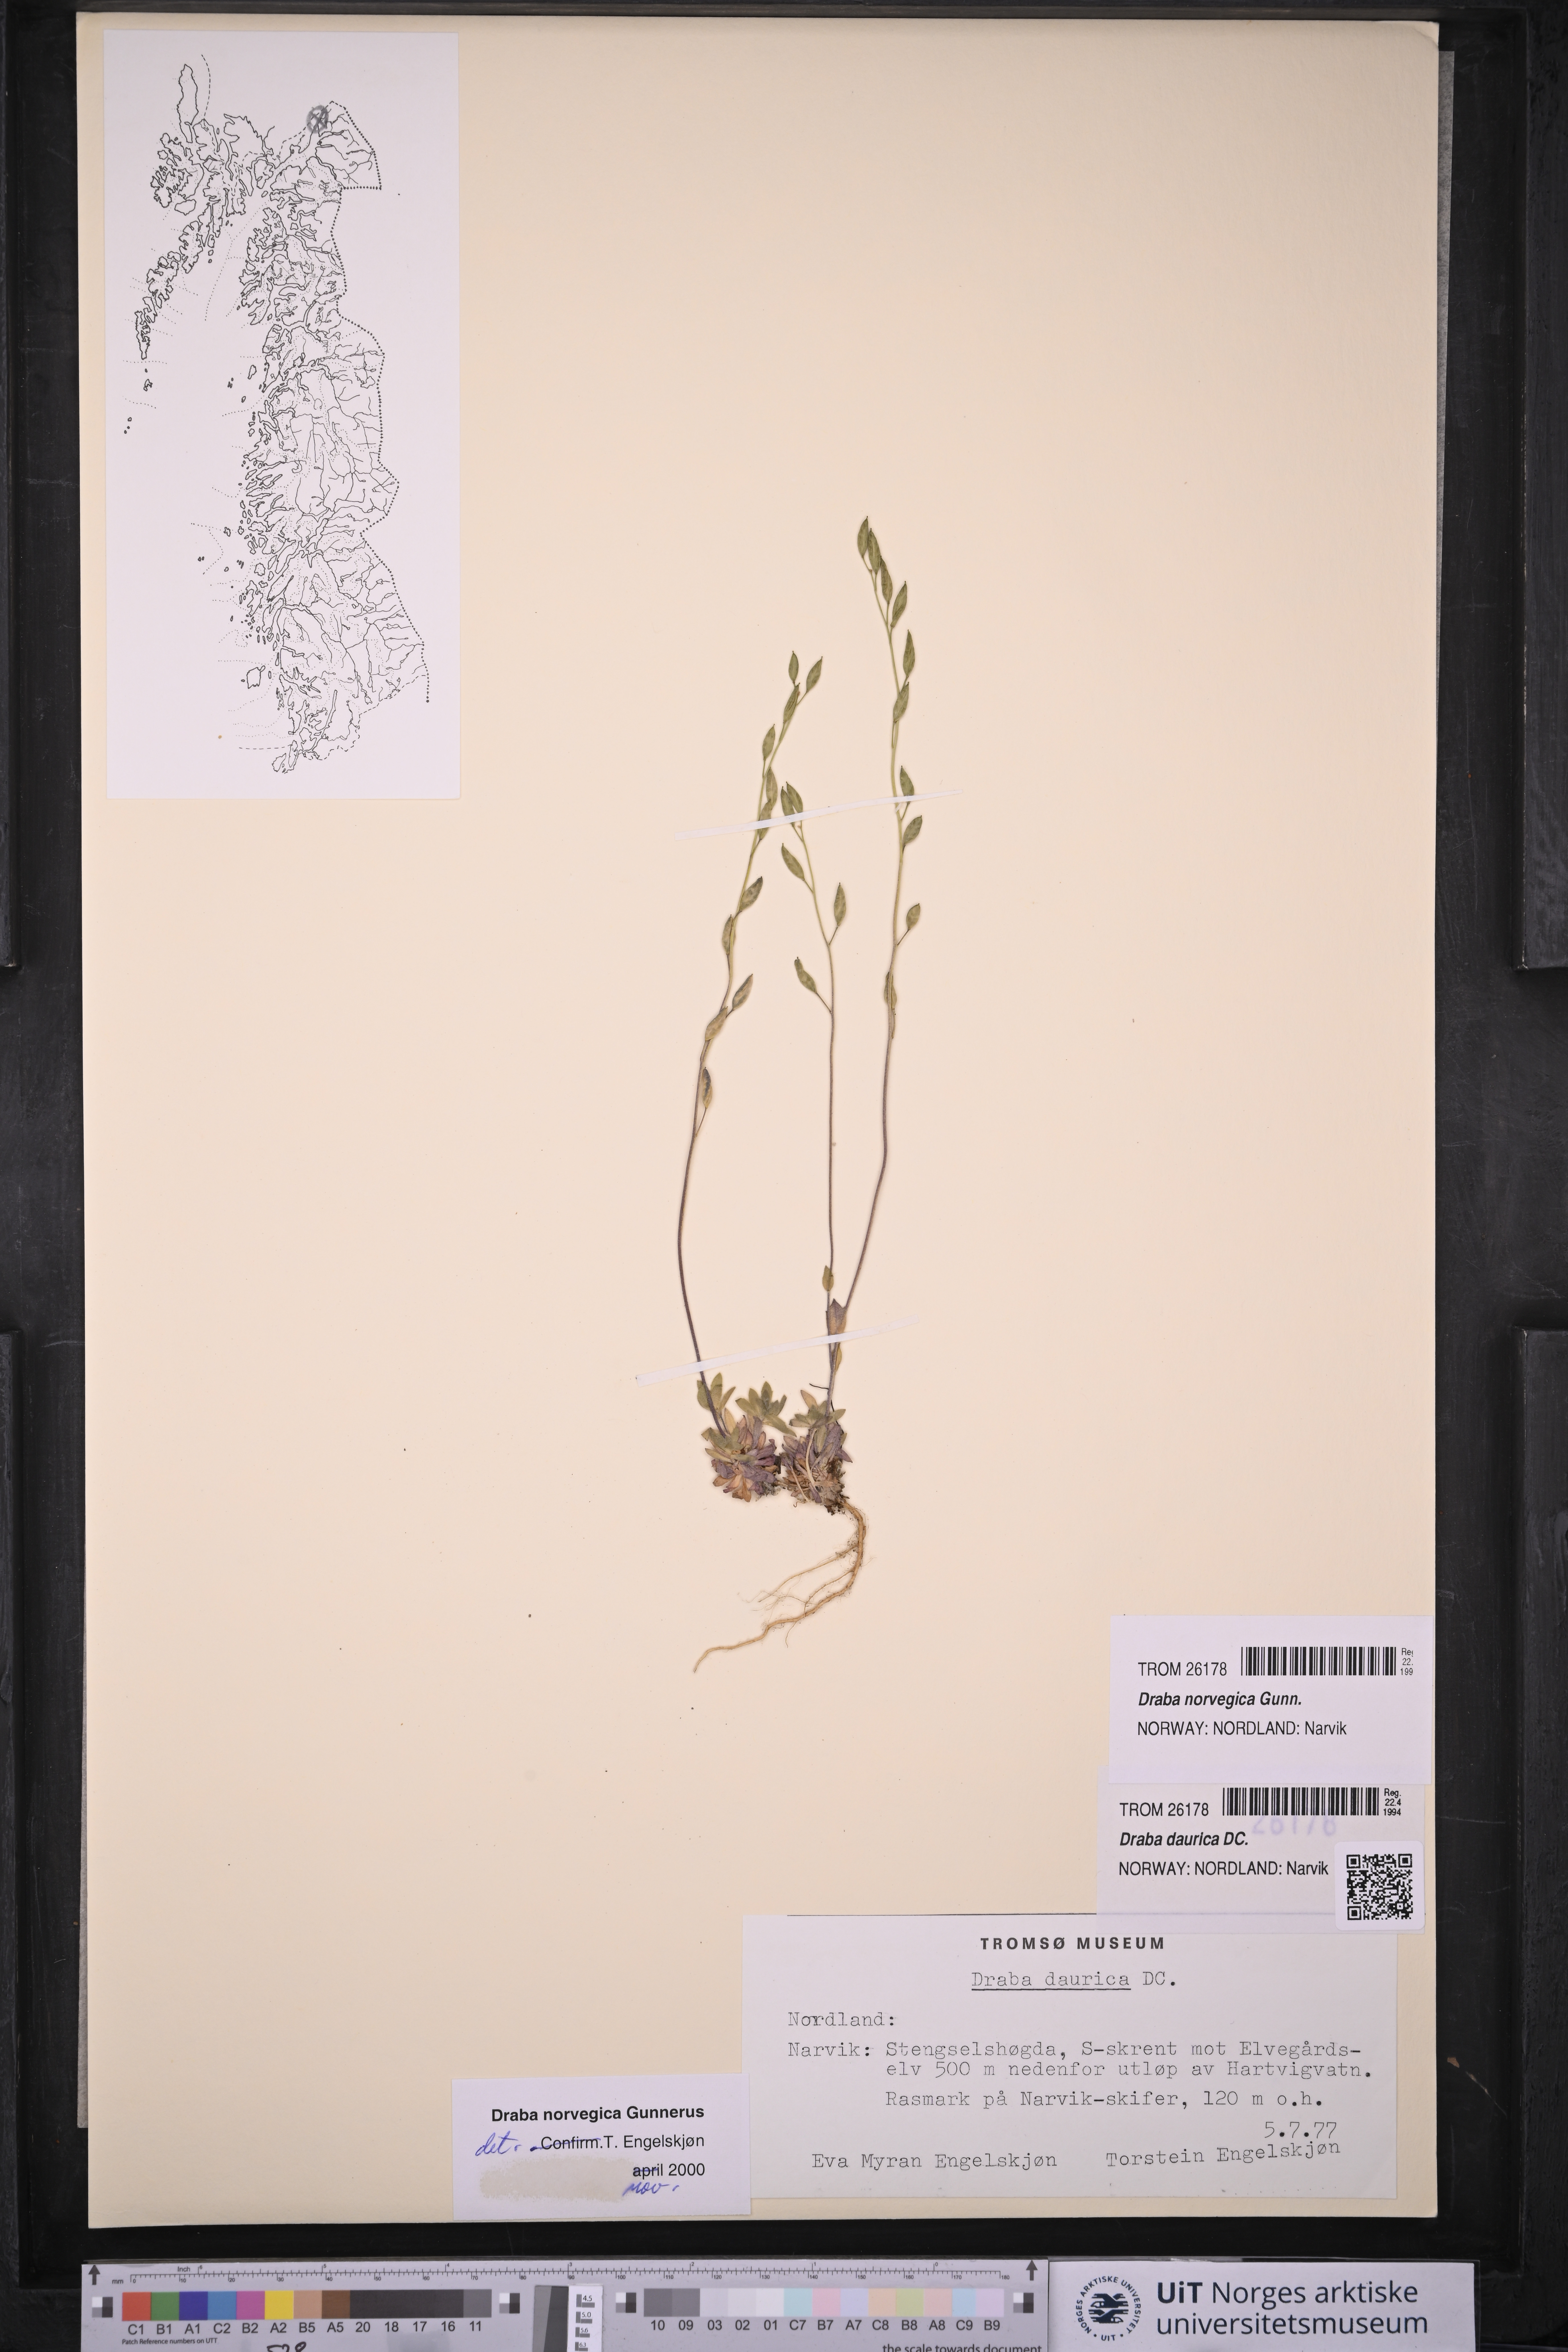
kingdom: Plantae
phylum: Tracheophyta
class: Magnoliopsida
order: Brassicales
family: Brassicaceae
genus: Draba
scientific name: Draba norvegica
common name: Rock whitlowgrass
